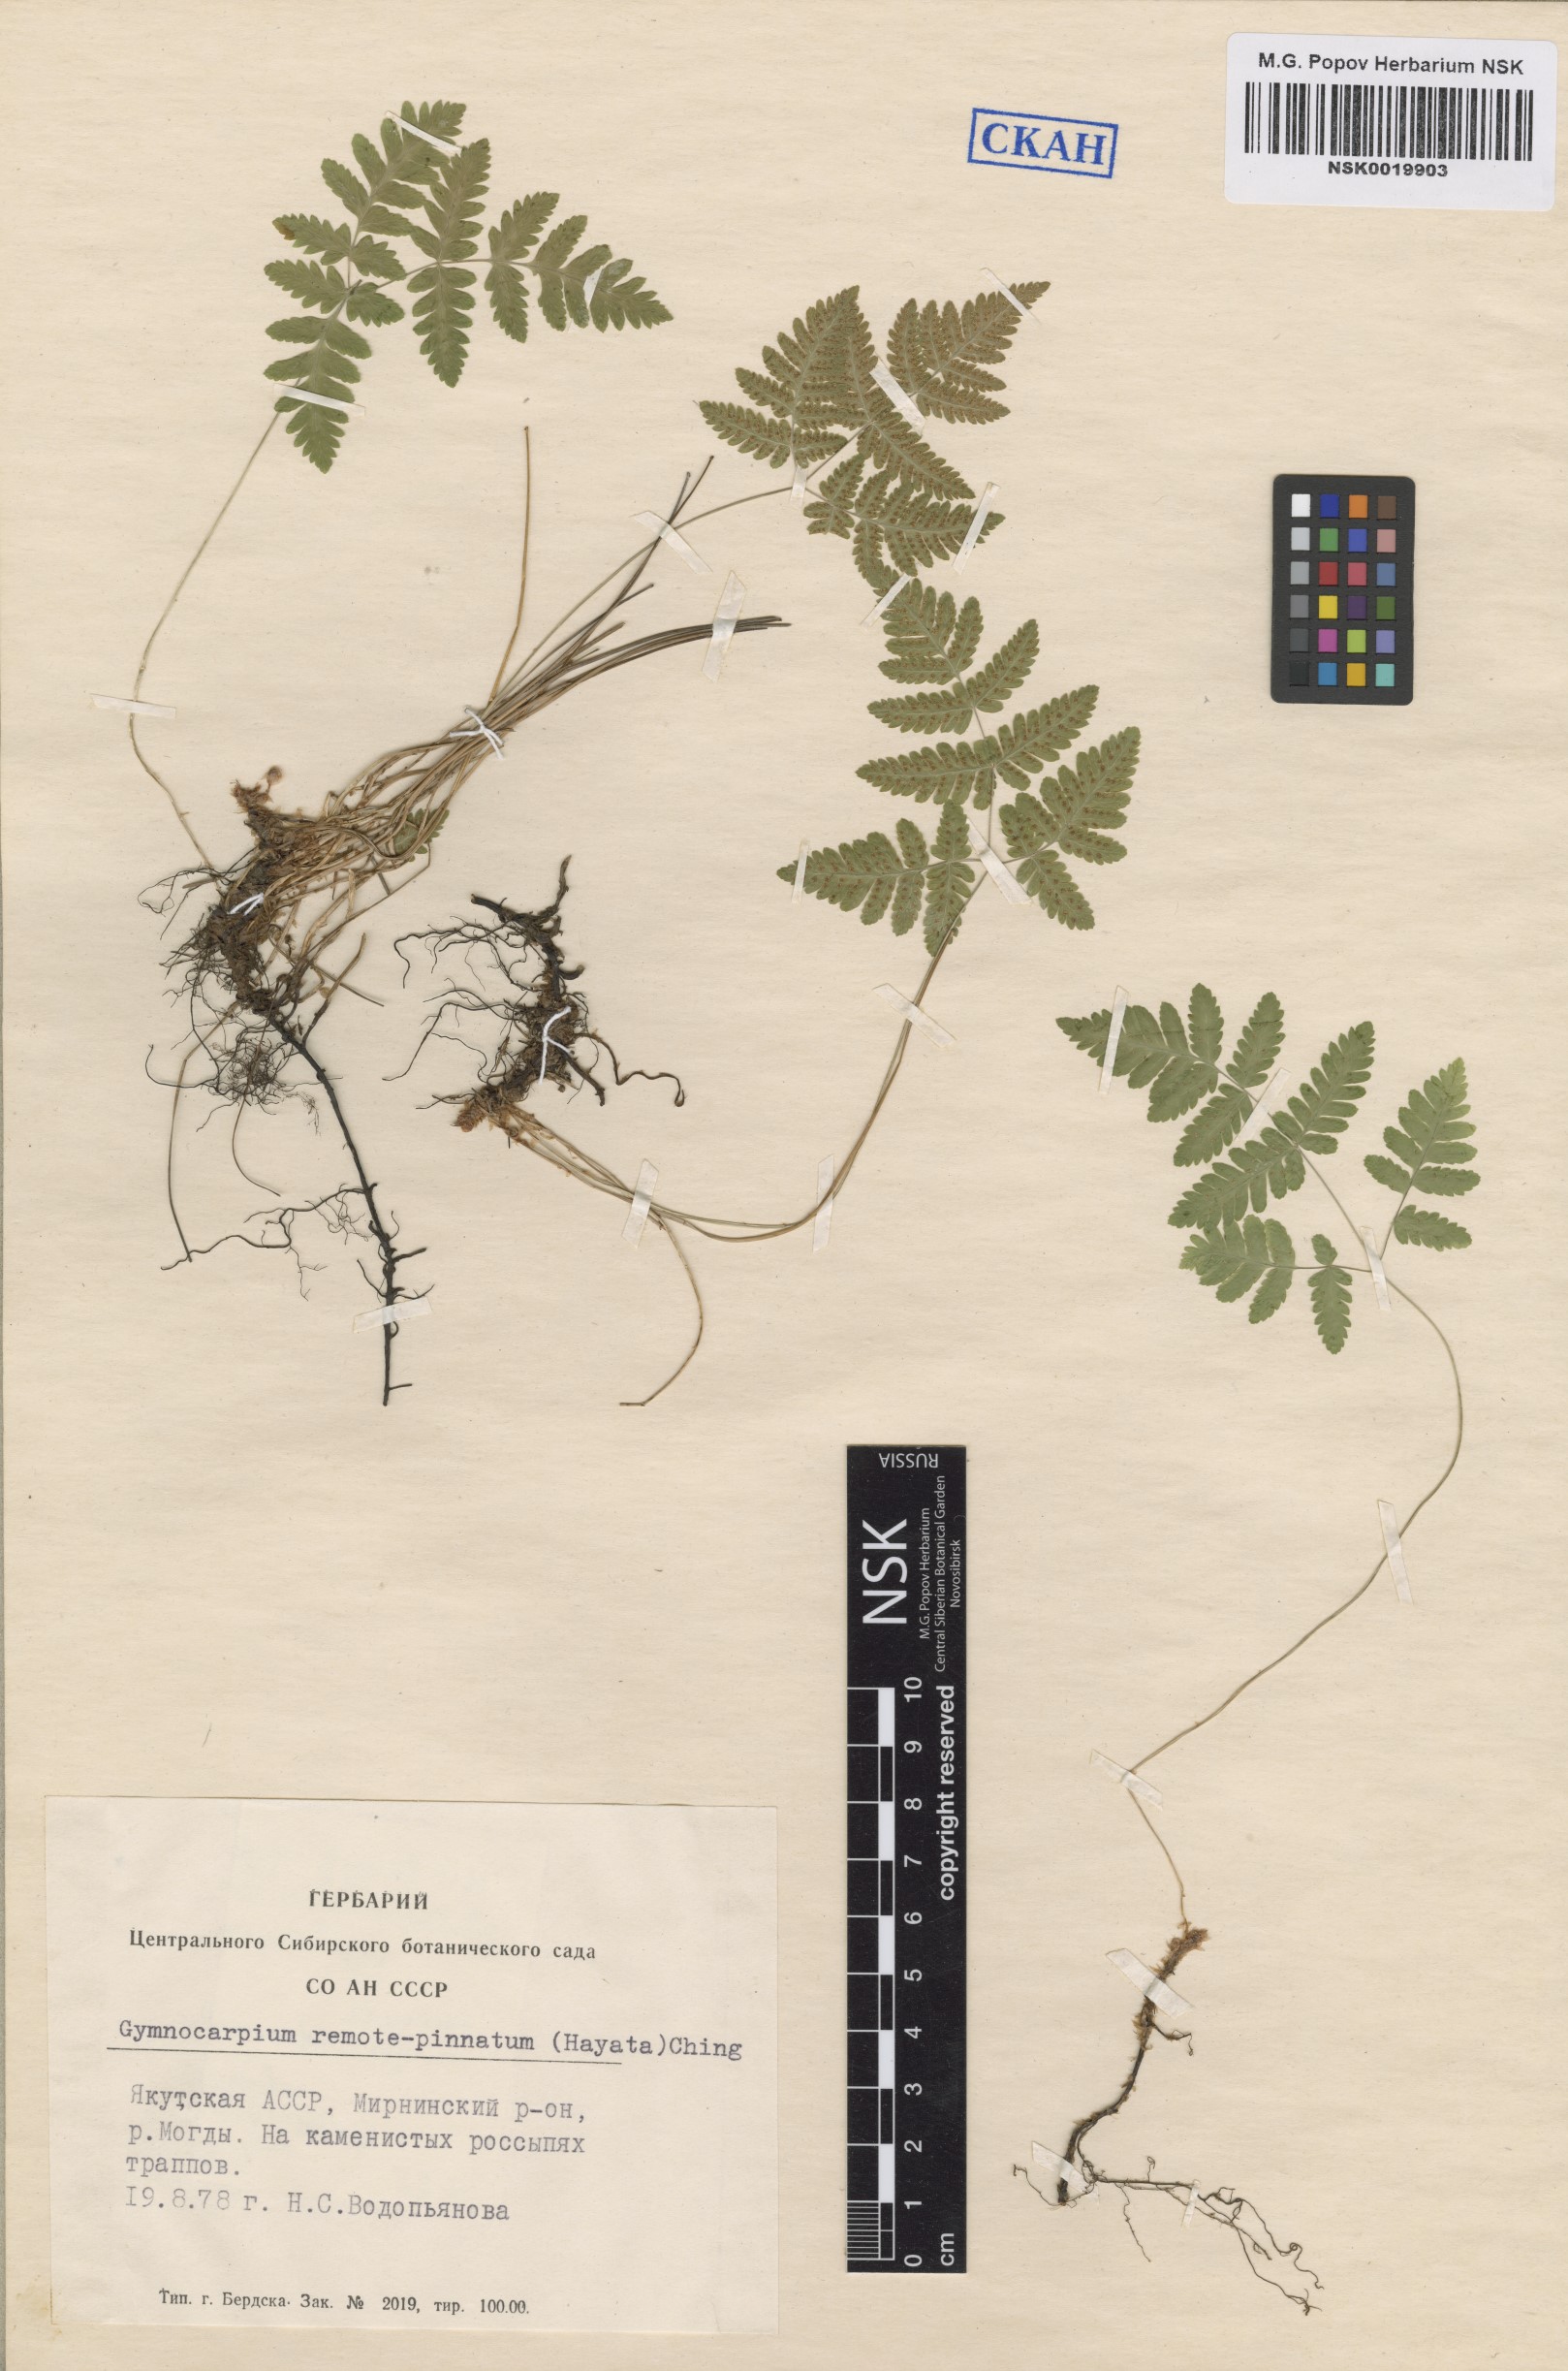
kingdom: Plantae
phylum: Tracheophyta
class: Polypodiopsida
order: Polypodiales
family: Cystopteridaceae
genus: Gymnocarpium
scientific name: Gymnocarpium remotepinnatum
